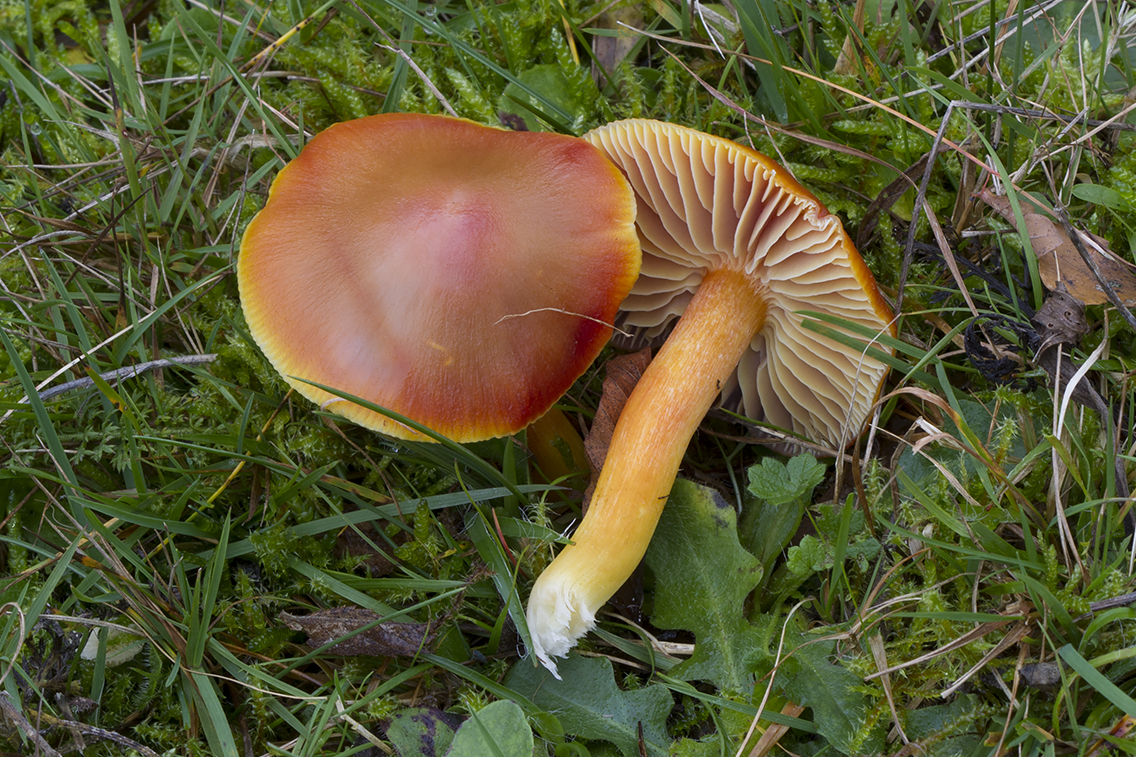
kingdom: Fungi
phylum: Basidiomycota
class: Agaricomycetes
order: Agaricales
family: Hygrophoraceae
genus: Hygrocybe
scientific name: Hygrocybe punicea
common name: skarlagen-vokshat
